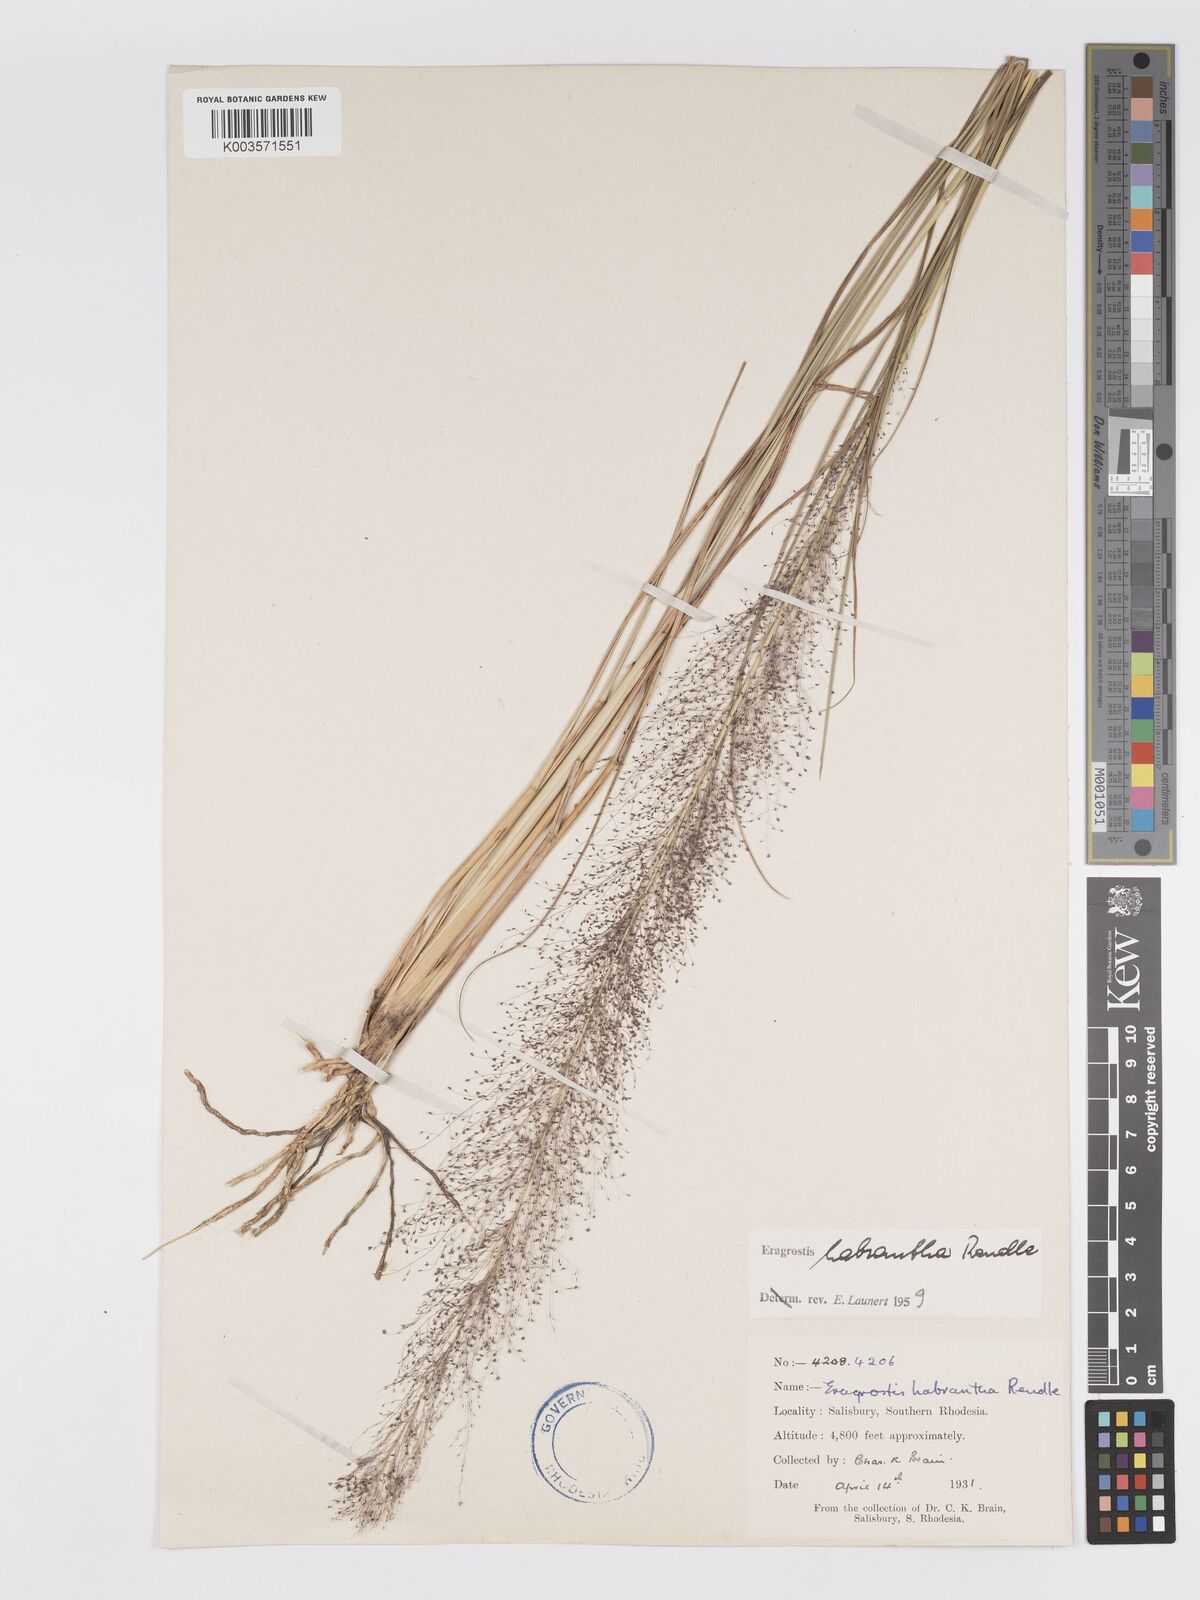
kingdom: Plantae
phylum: Tracheophyta
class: Liliopsida
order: Poales
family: Poaceae
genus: Eragrostis
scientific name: Eragrostis habrantha
